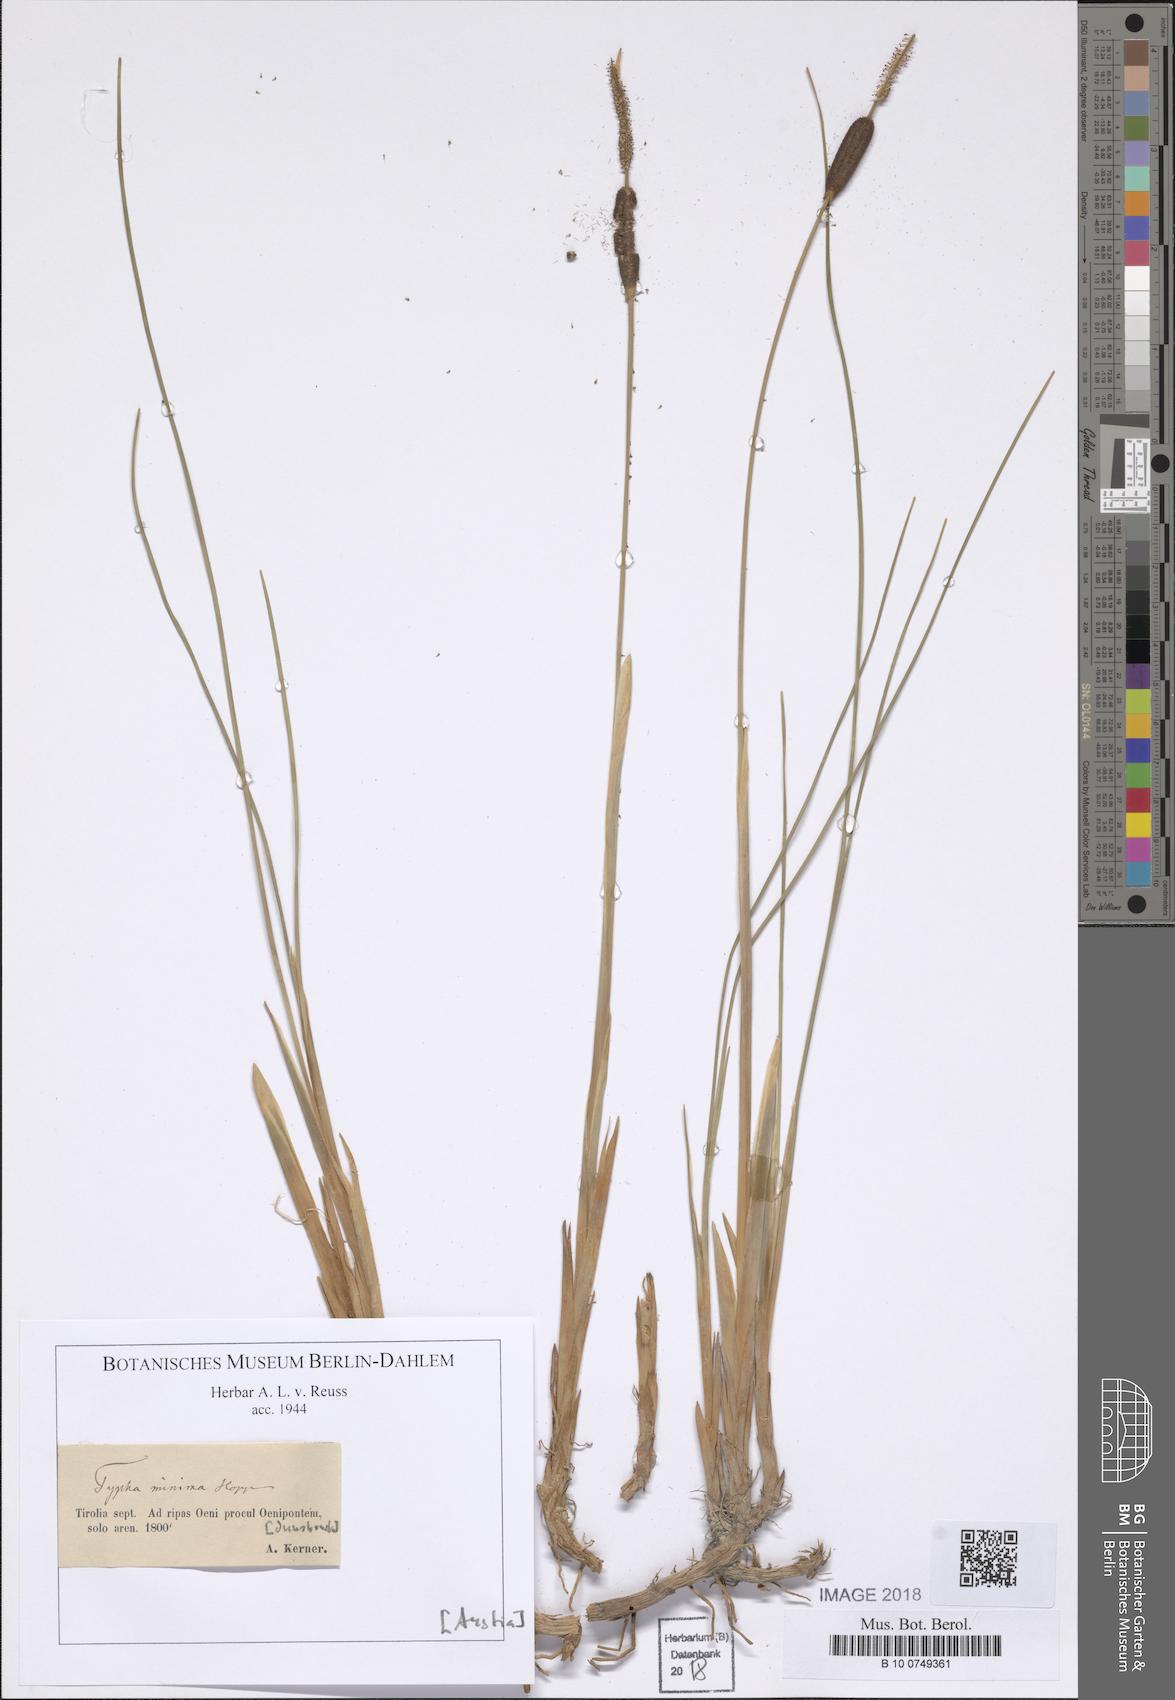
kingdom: Plantae
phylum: Tracheophyta
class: Liliopsida
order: Poales
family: Typhaceae
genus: Typha
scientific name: Typha minima
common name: Dwarf bulrush
